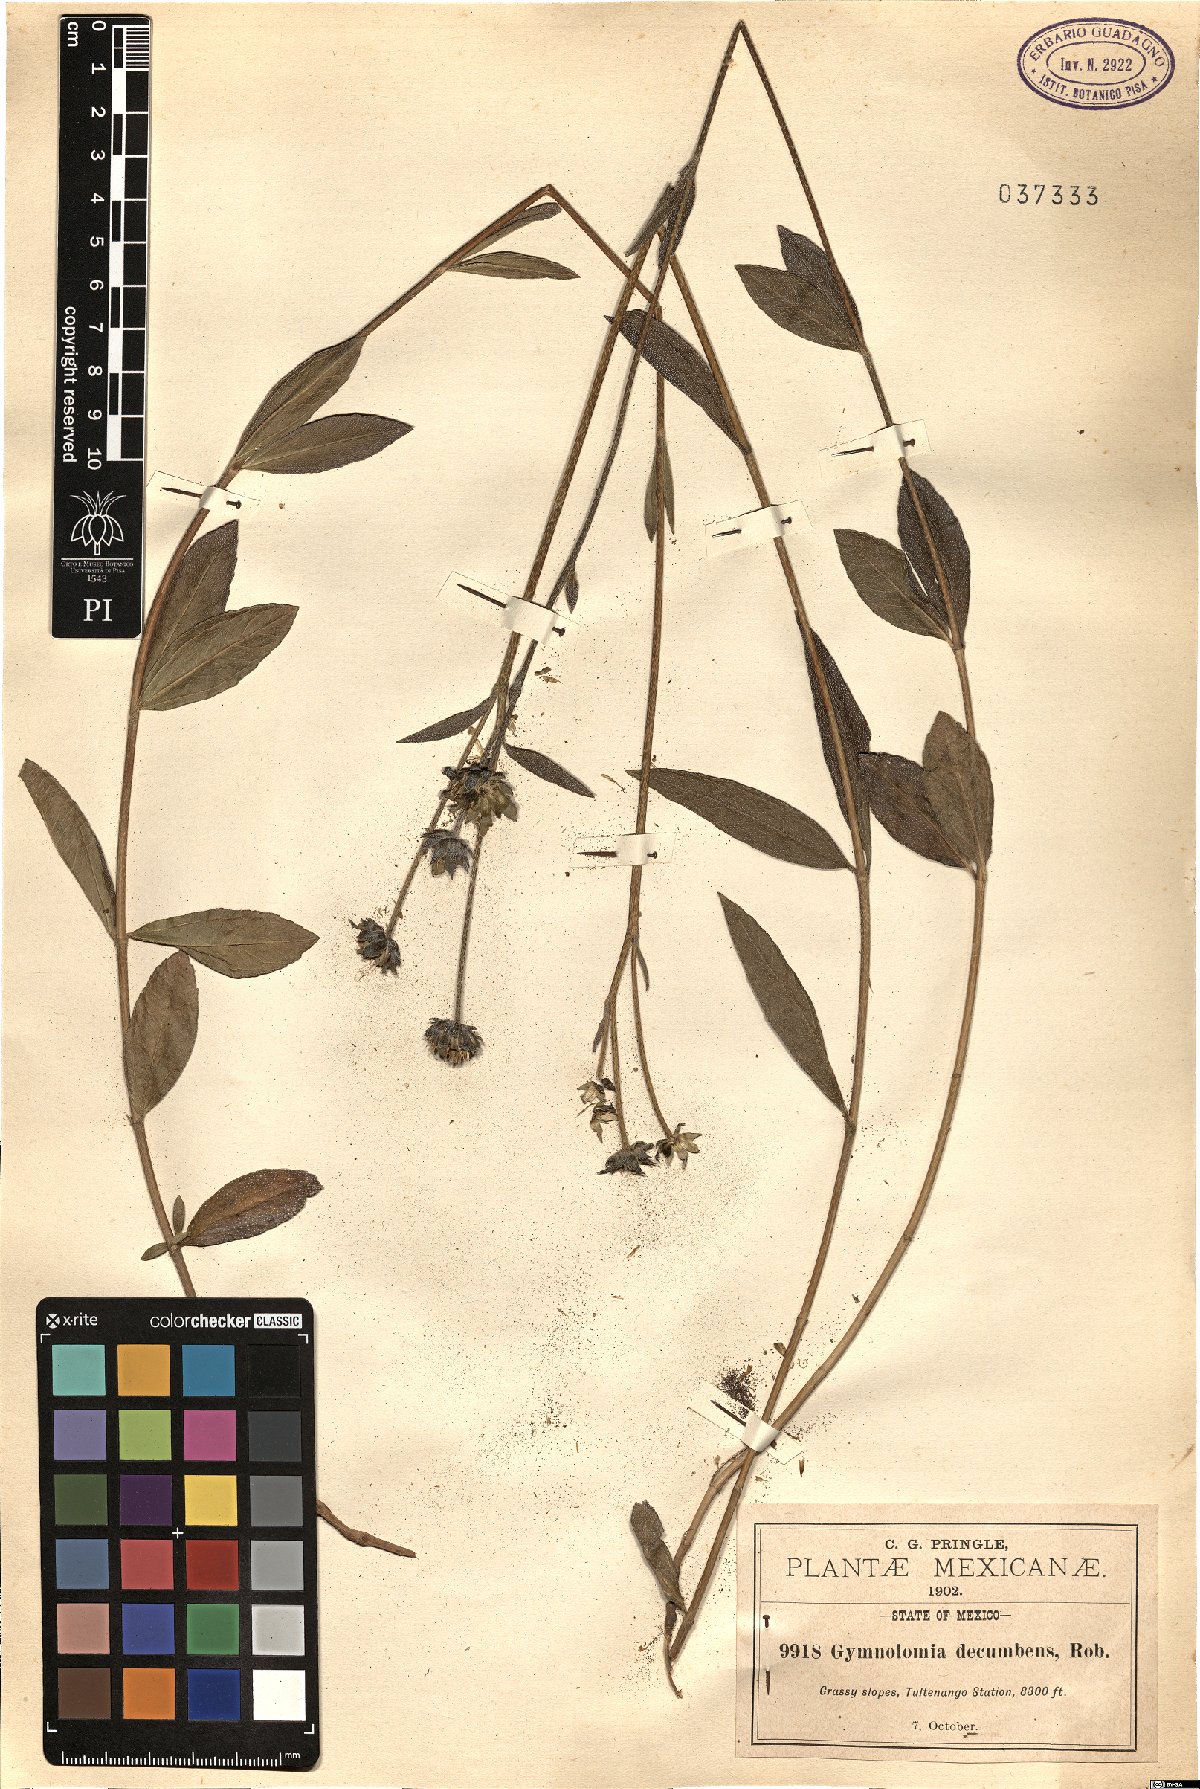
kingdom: Plantae
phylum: Tracheophyta
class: Magnoliopsida
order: Asterales
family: Asteraceae
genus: Aldama
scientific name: Aldama flava
